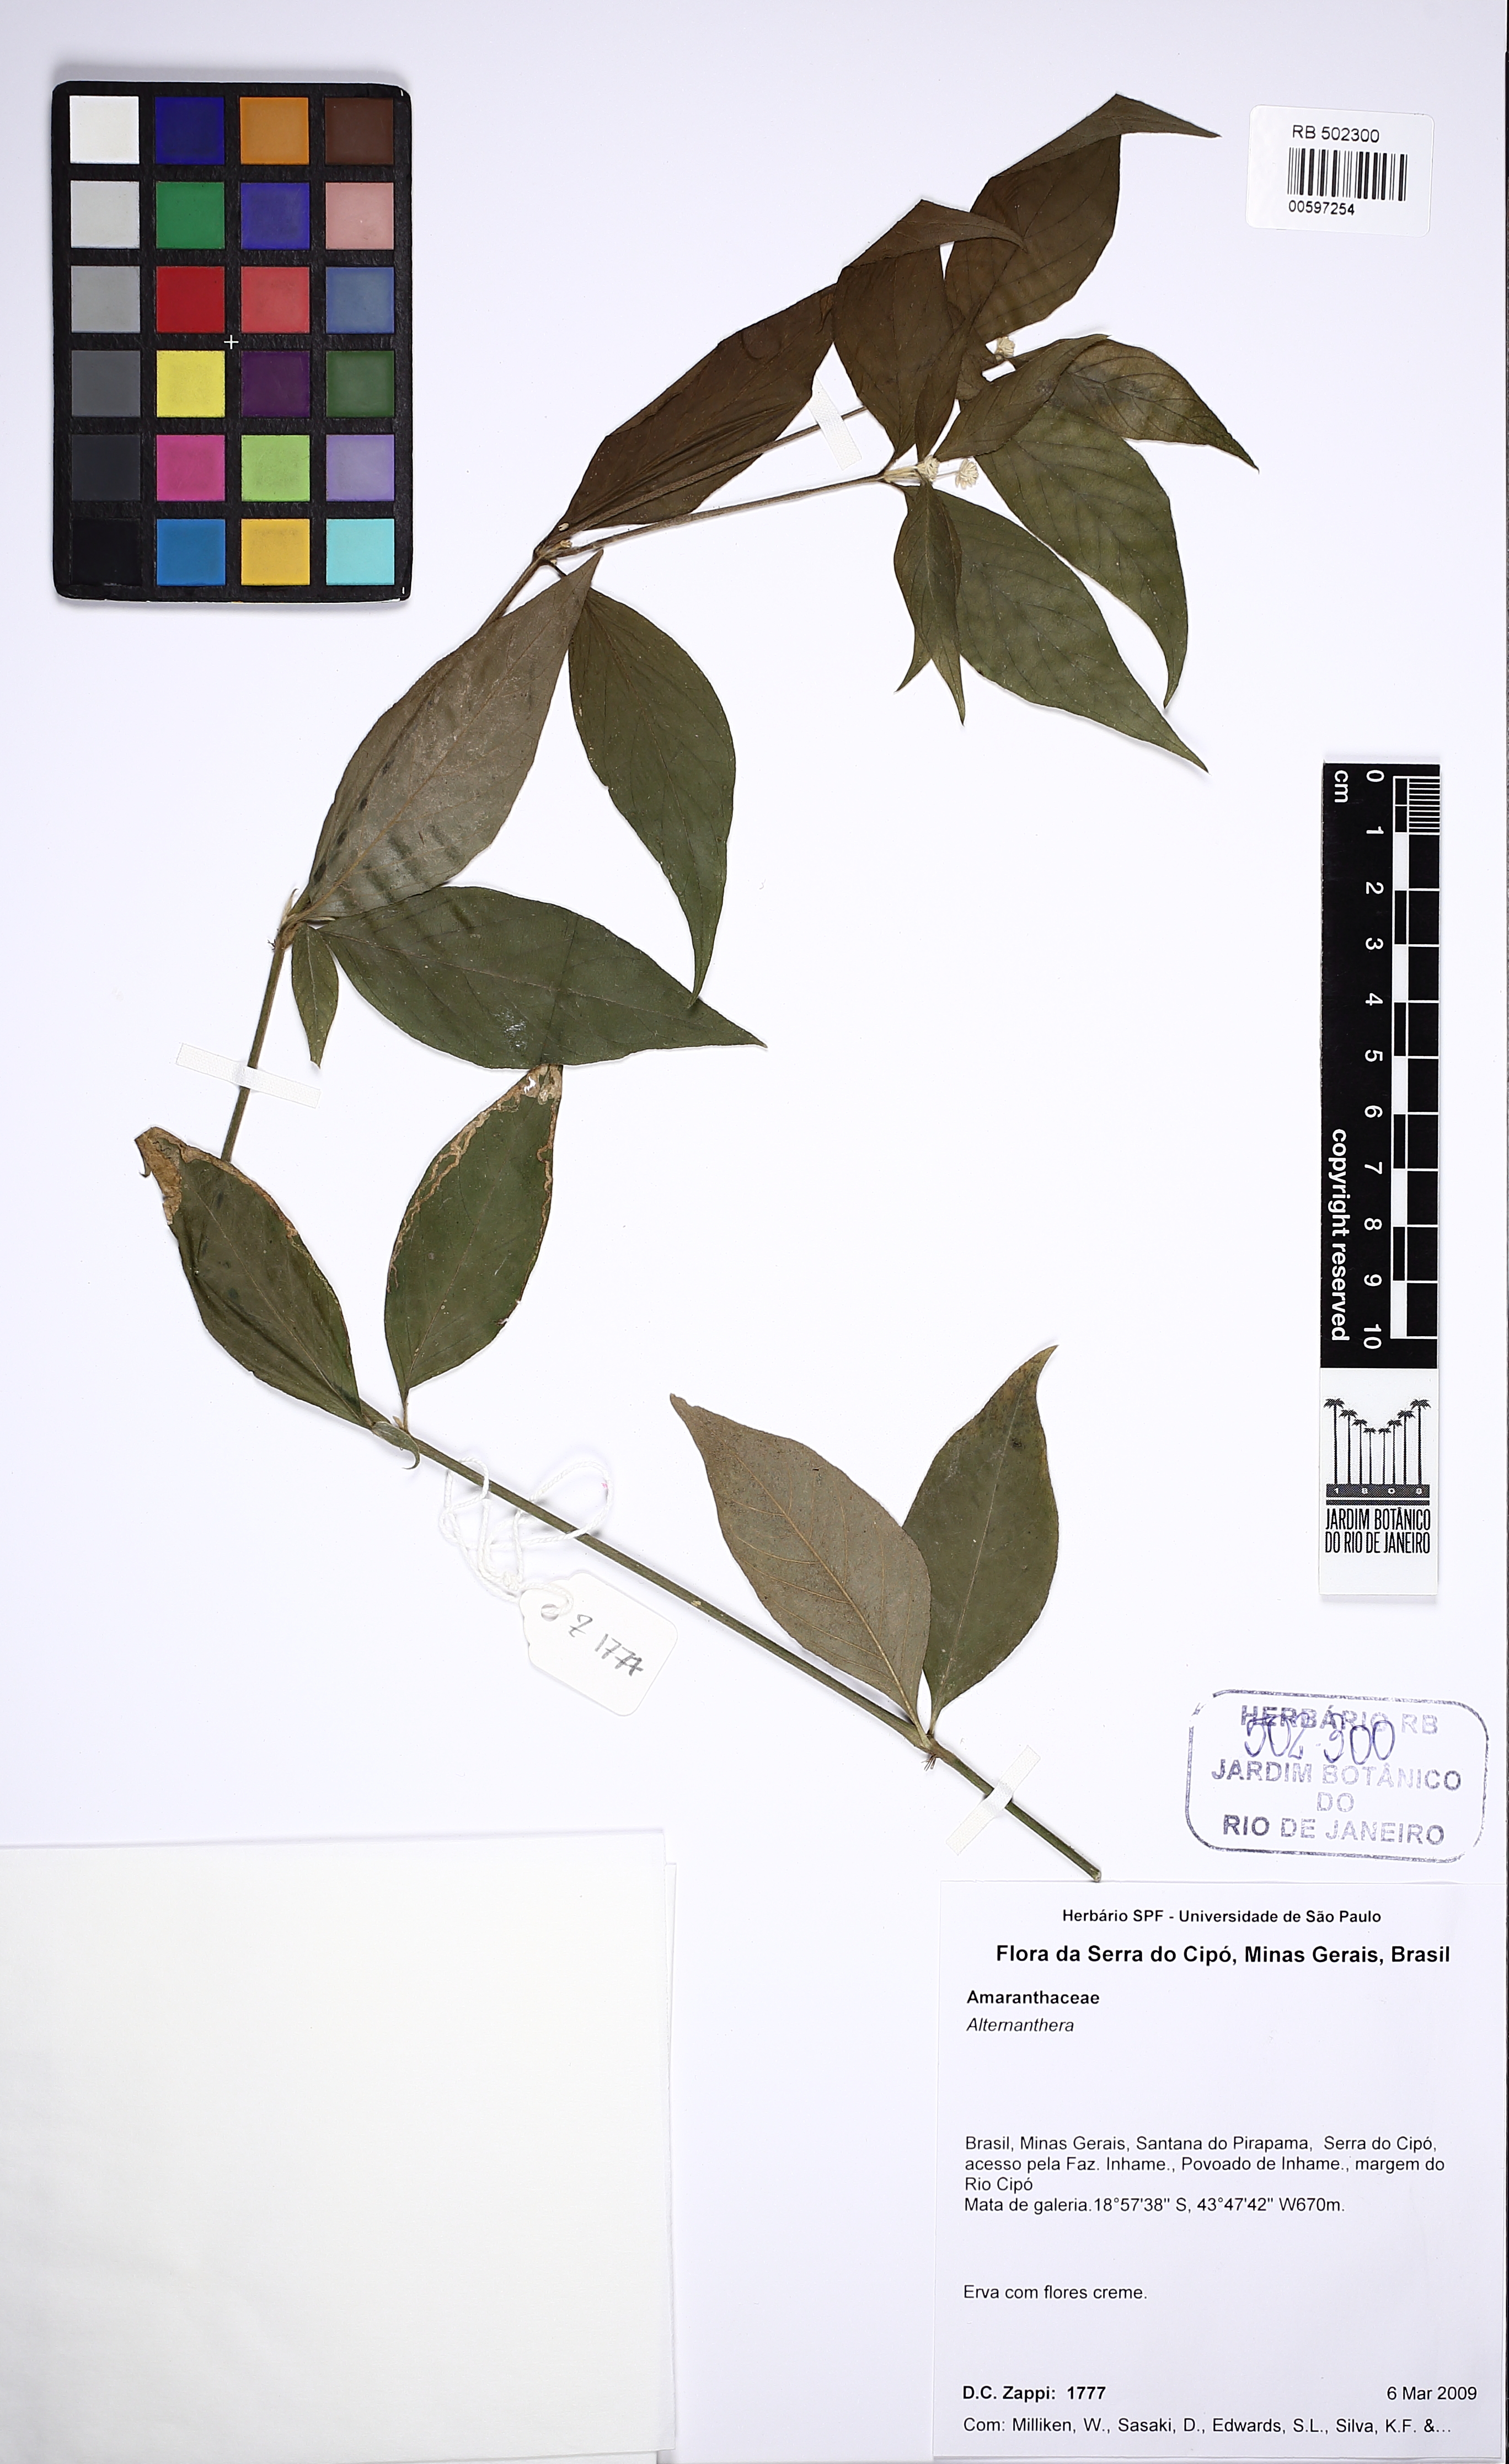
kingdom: Plantae
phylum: Tracheophyta
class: Magnoliopsida
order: Caryophyllales
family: Amaranthaceae
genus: Alternanthera
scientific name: Alternanthera lanceolata
